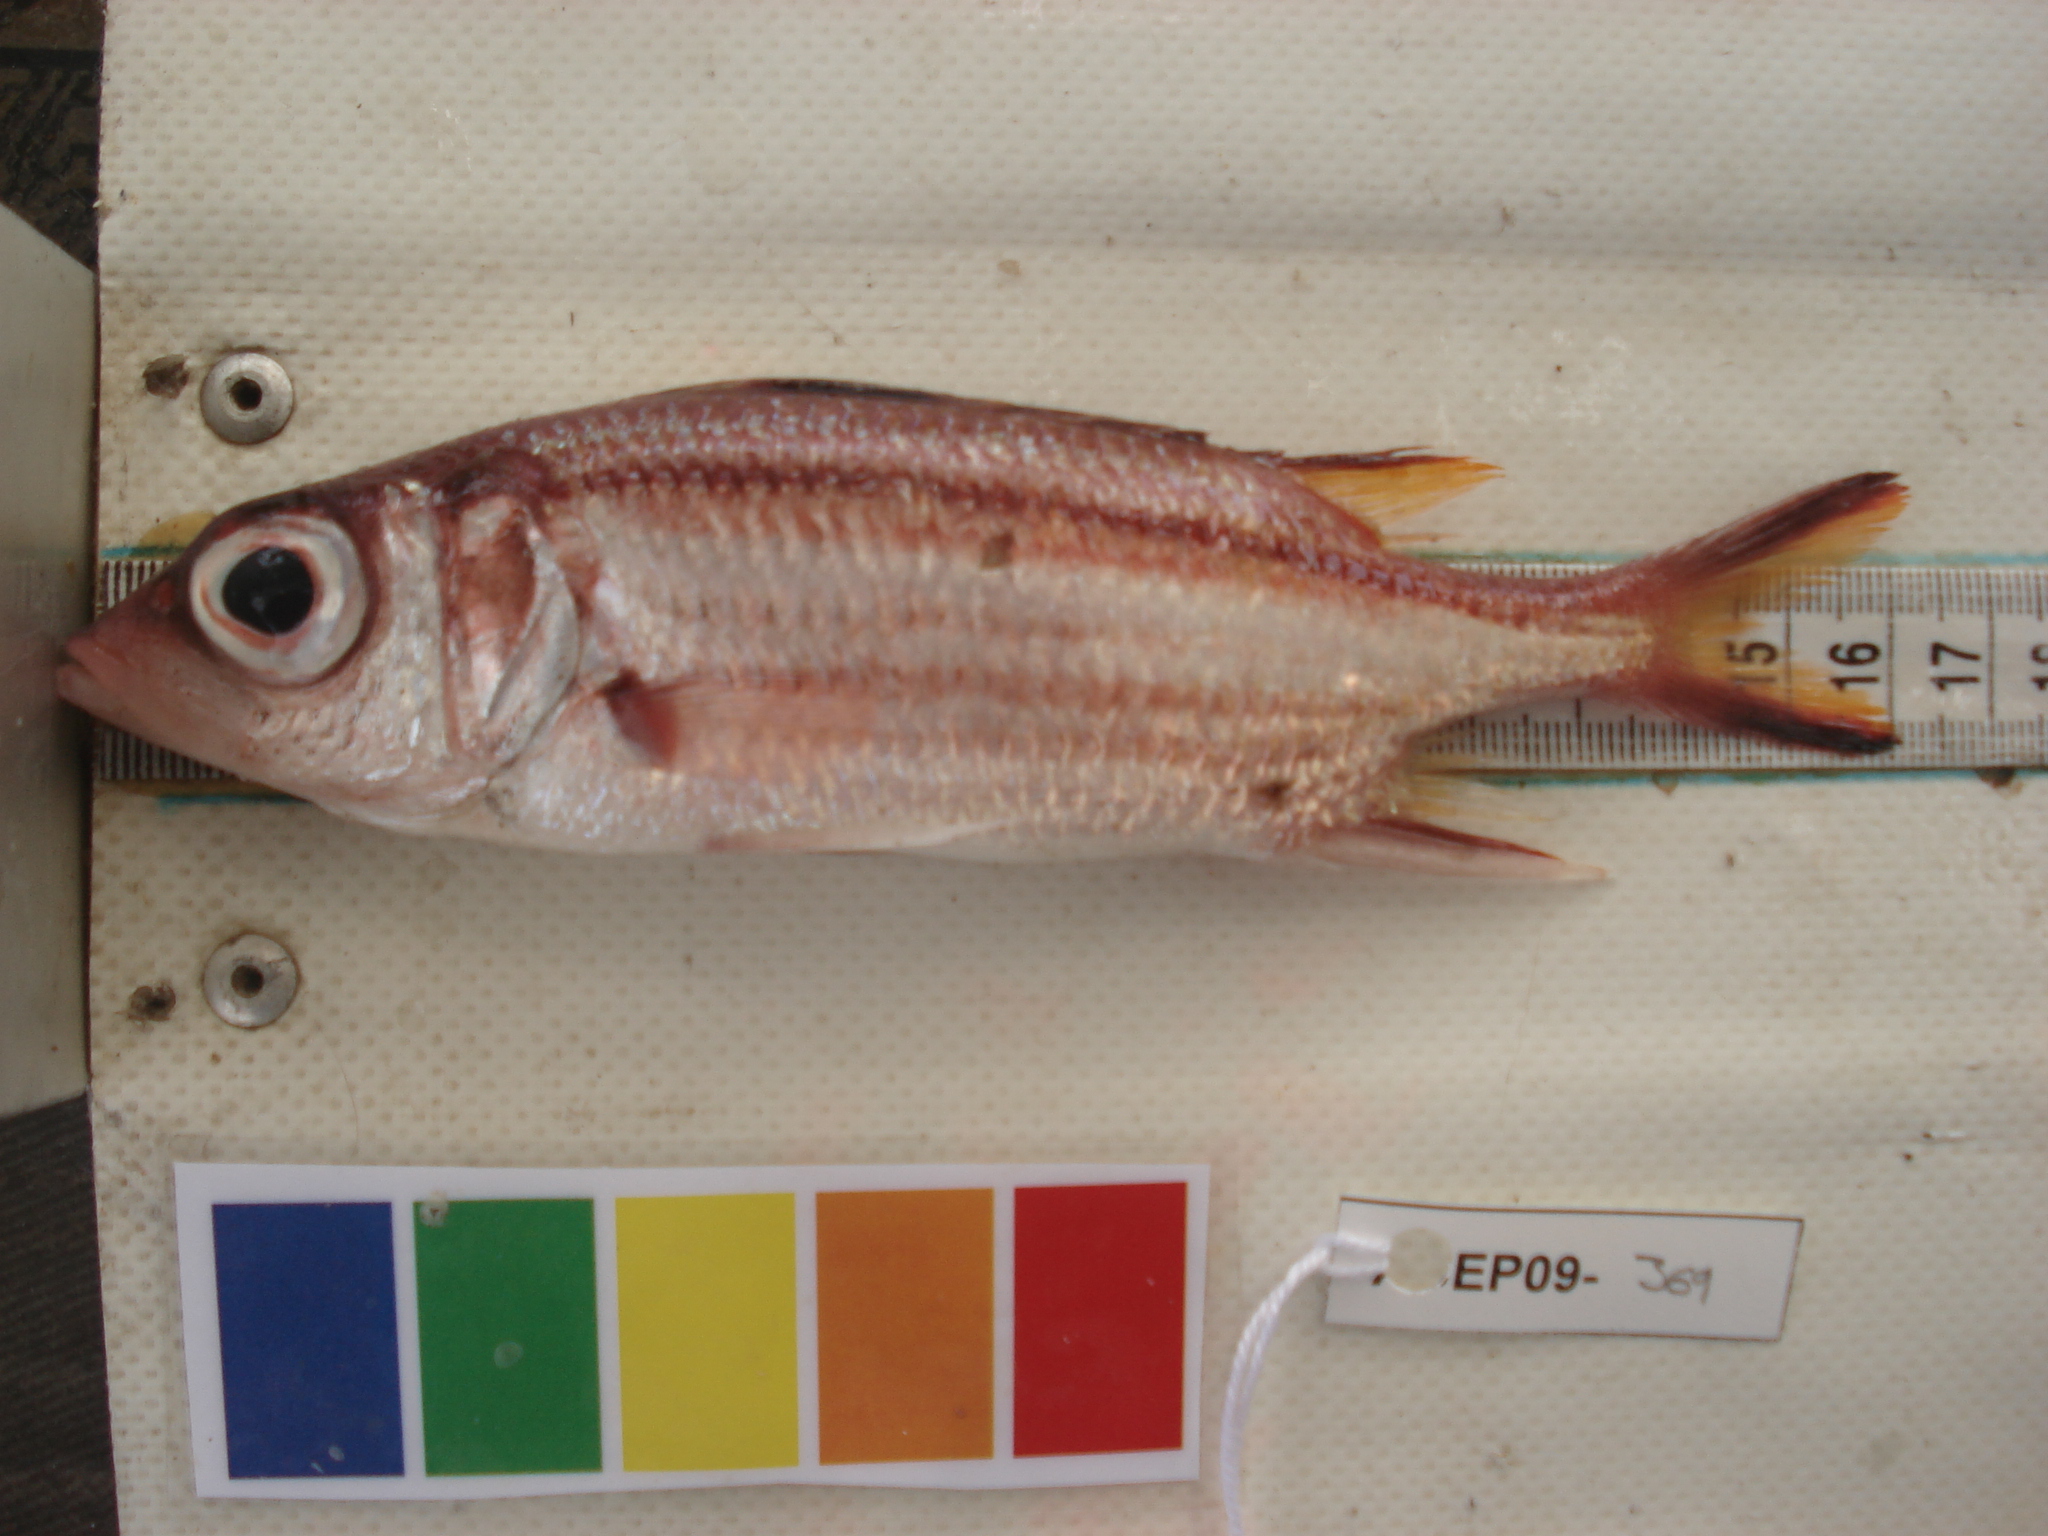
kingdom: Animalia
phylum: Chordata
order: Beryciformes
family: Holocentridae
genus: Neoniphon
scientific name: Neoniphon sammara
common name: Sammara squirrelfish
